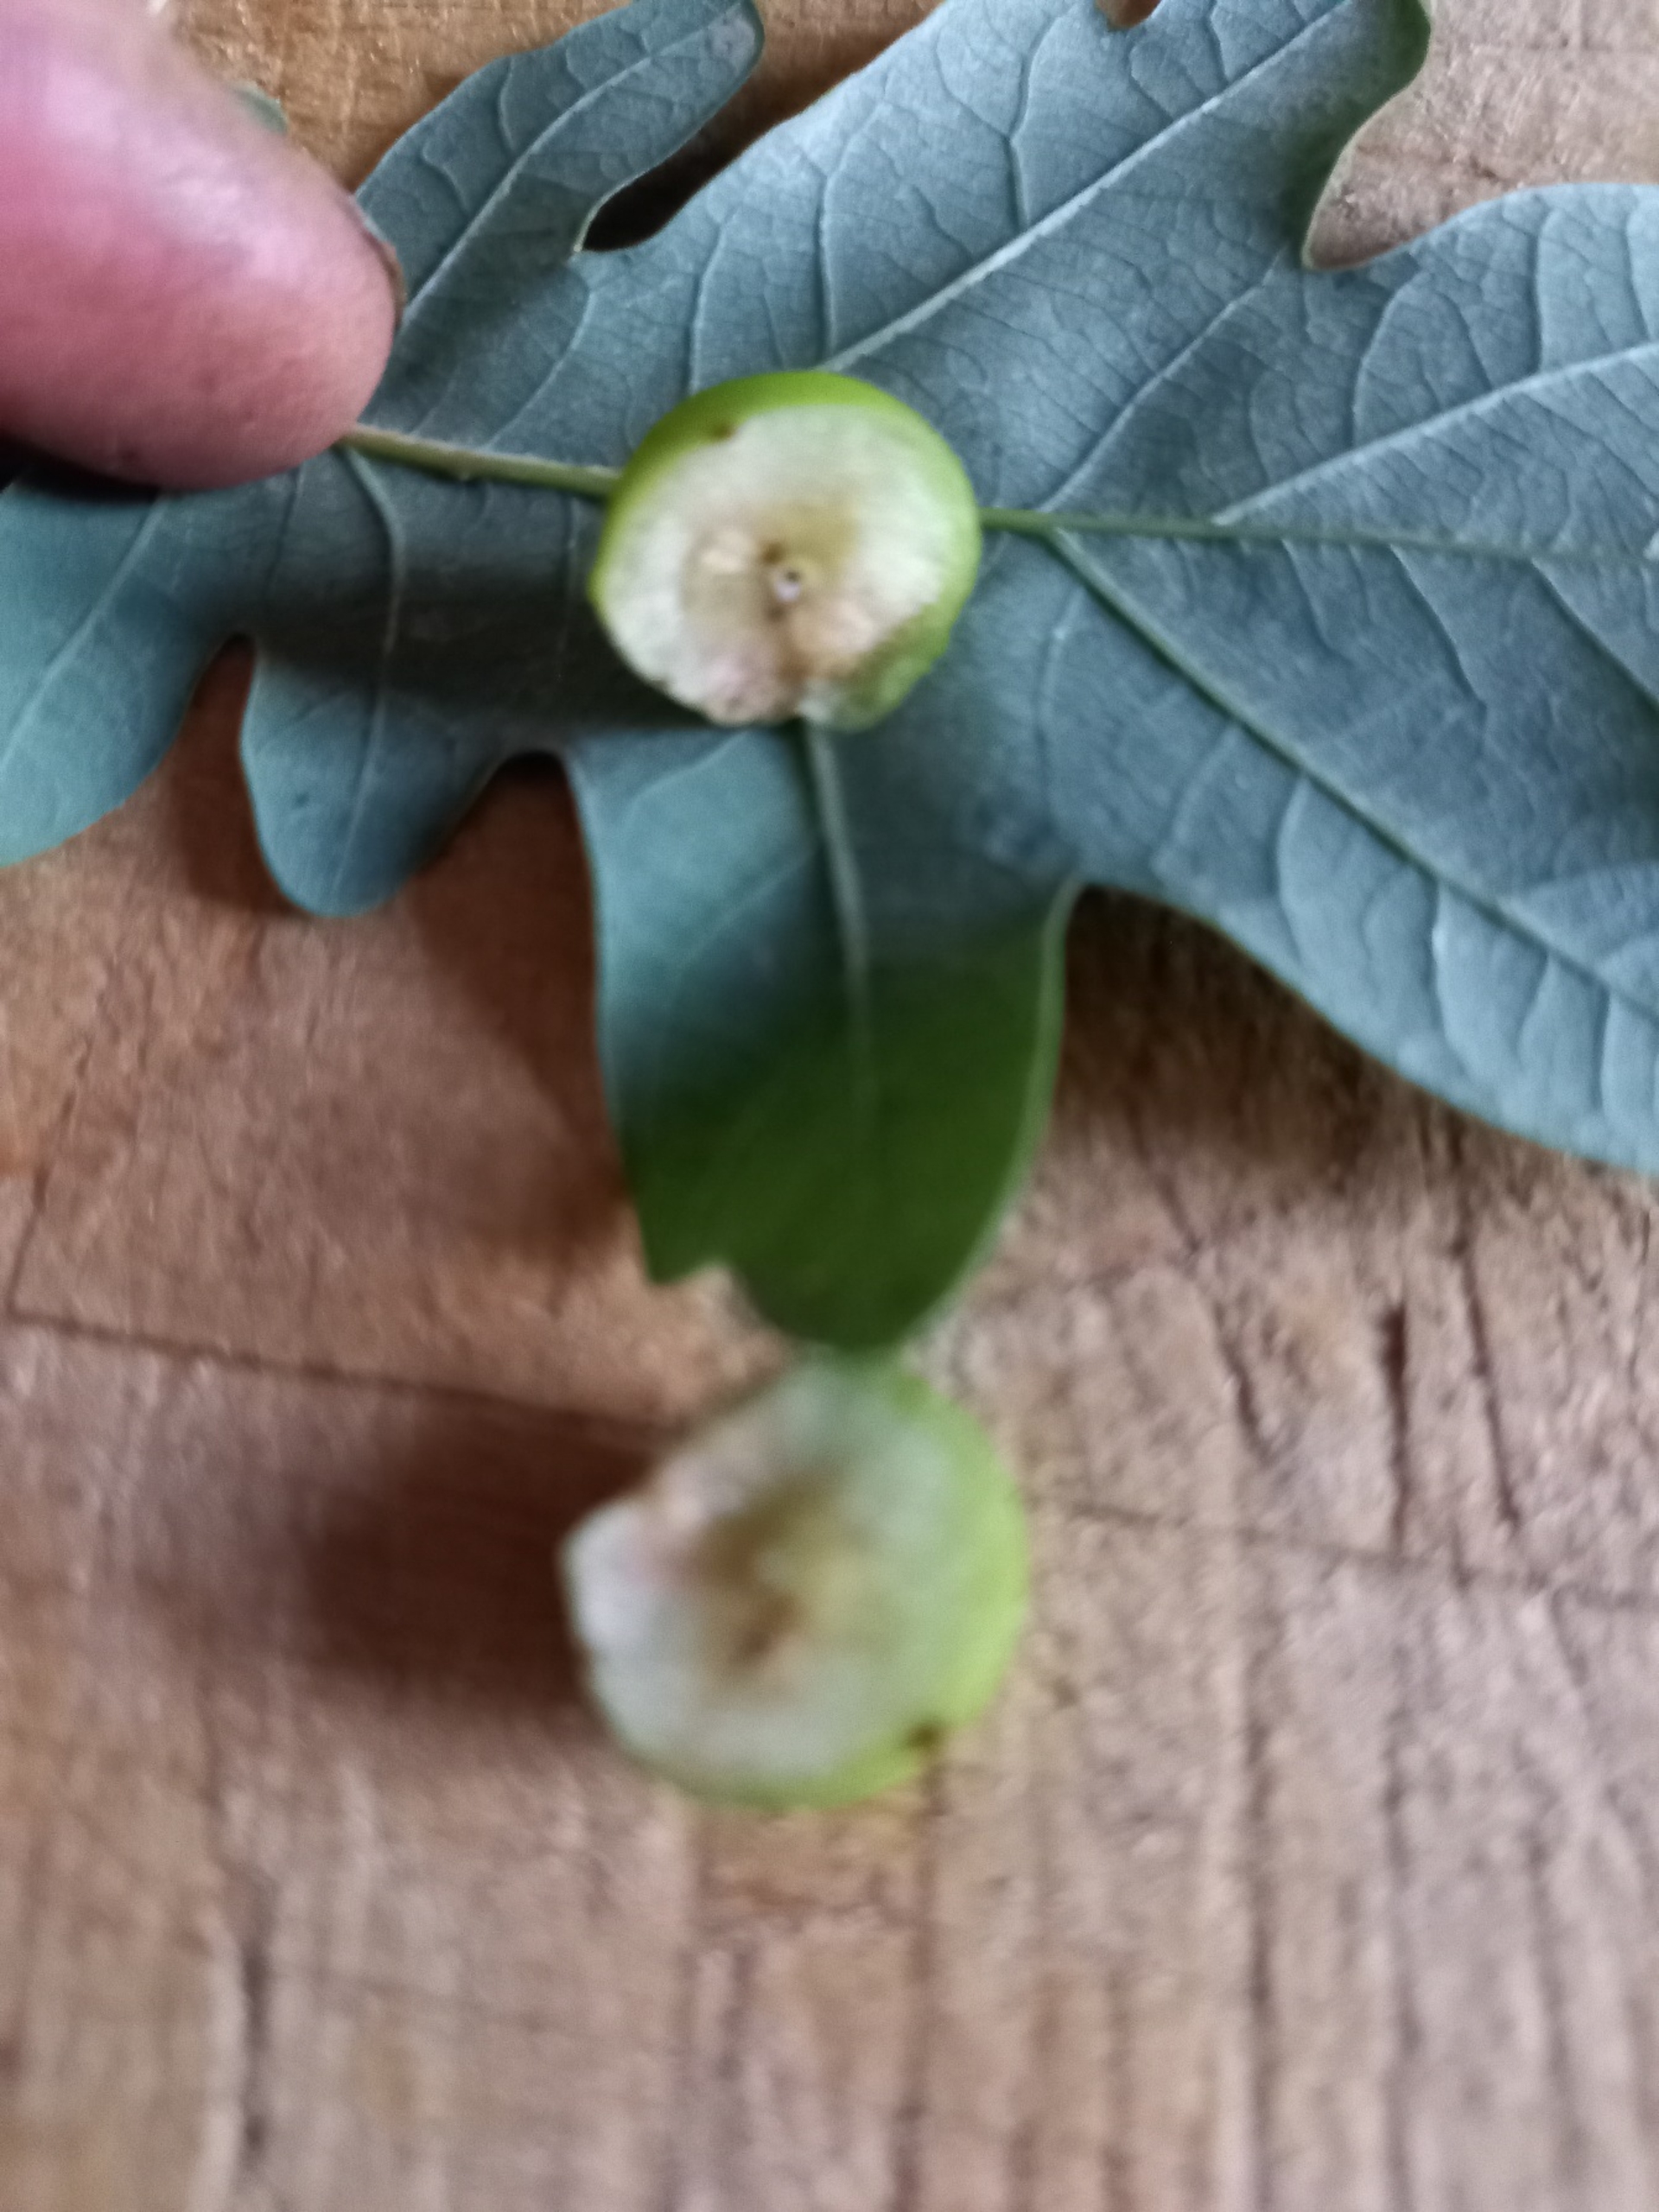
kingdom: Animalia
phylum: Arthropoda
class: Insecta
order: Hymenoptera
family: Cynipidae
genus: Cynips
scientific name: Cynips quercusfolii
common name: Stor galæblehveps
